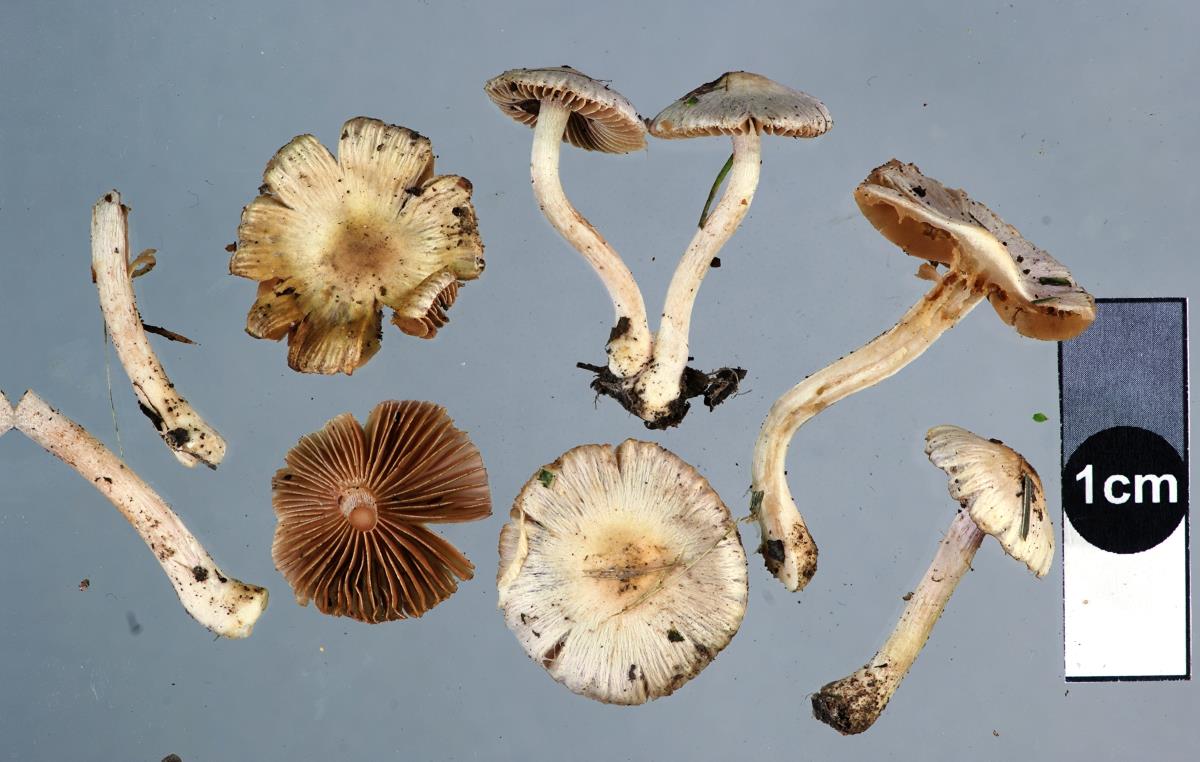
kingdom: Fungi
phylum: Basidiomycota
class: Agaricomycetes
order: Agaricales
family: Inocybaceae
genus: Inocybe
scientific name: Inocybe geophylla
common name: White fibrecap
